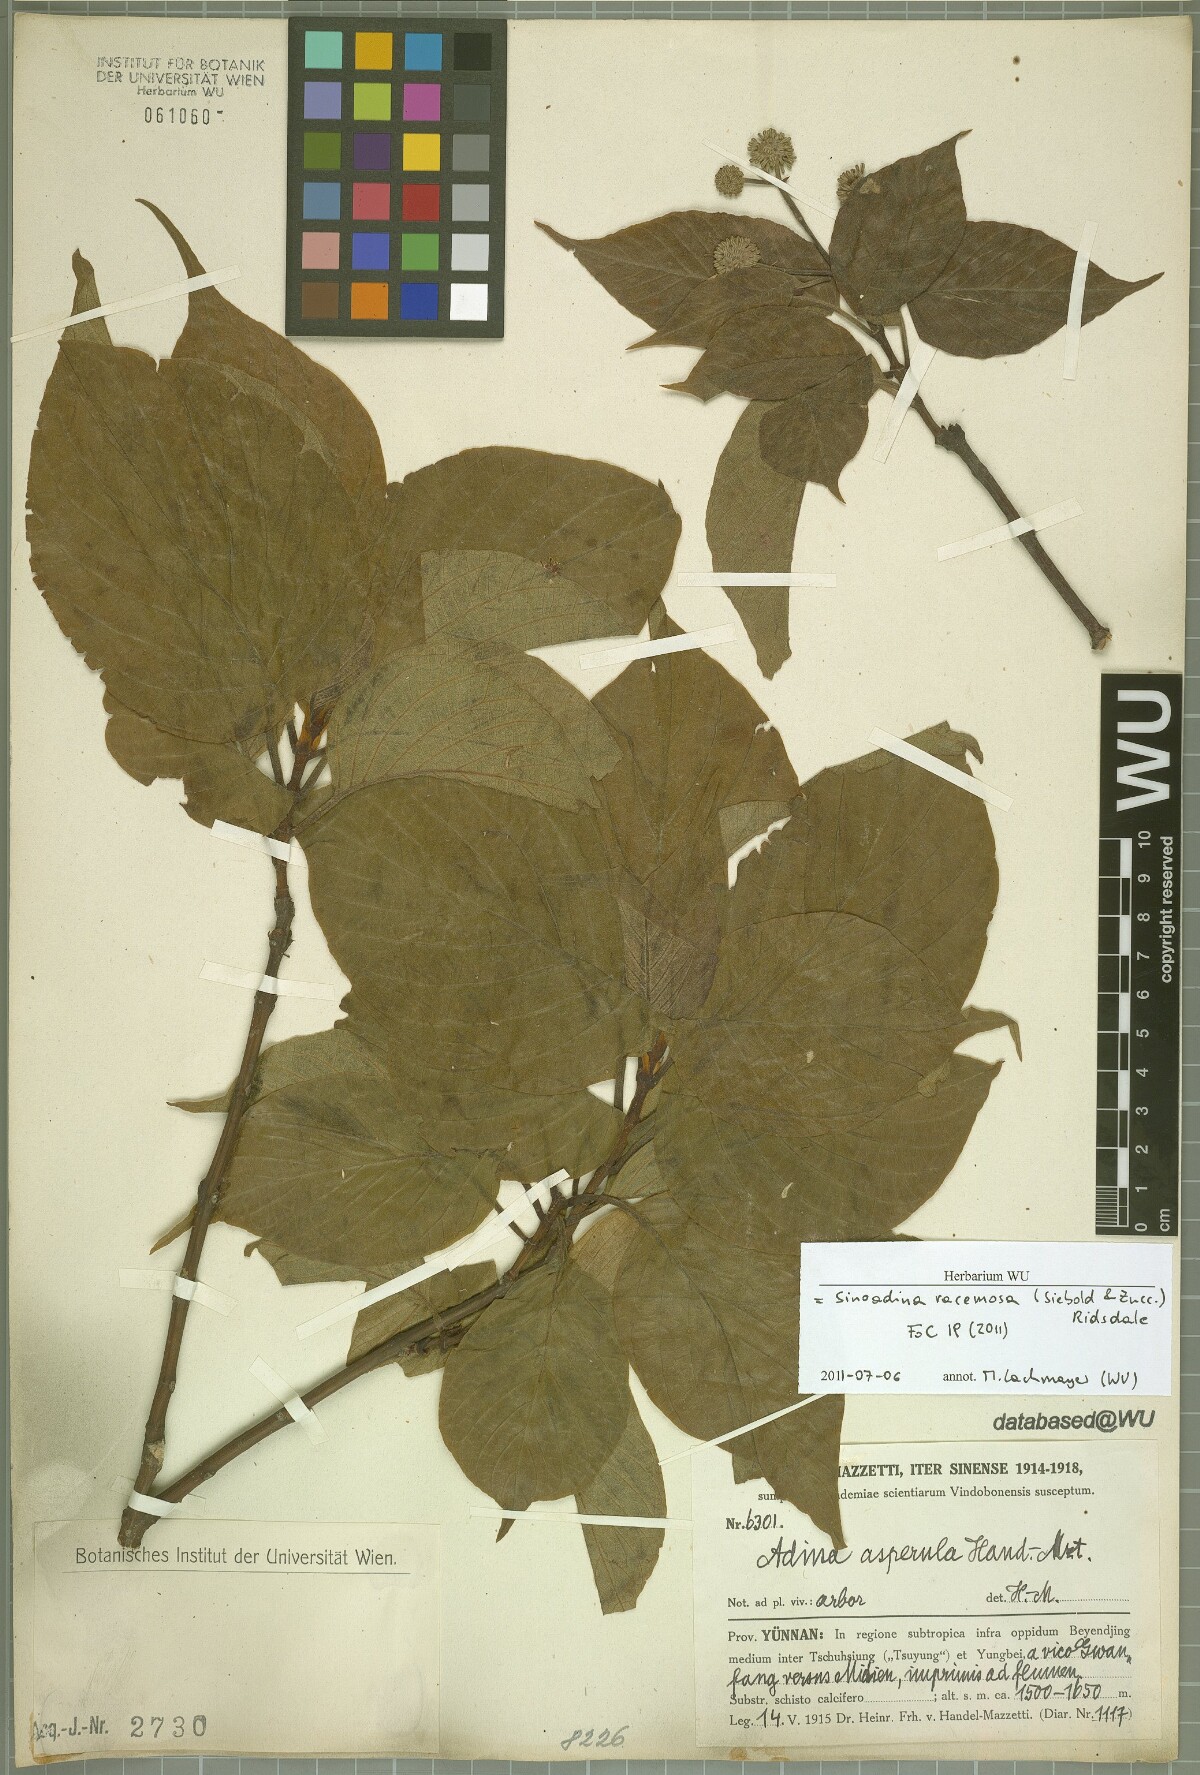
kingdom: Plantae
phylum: Tracheophyta
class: Magnoliopsida
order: Gentianales
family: Rubiaceae
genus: Adina
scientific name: Adina racemosa
